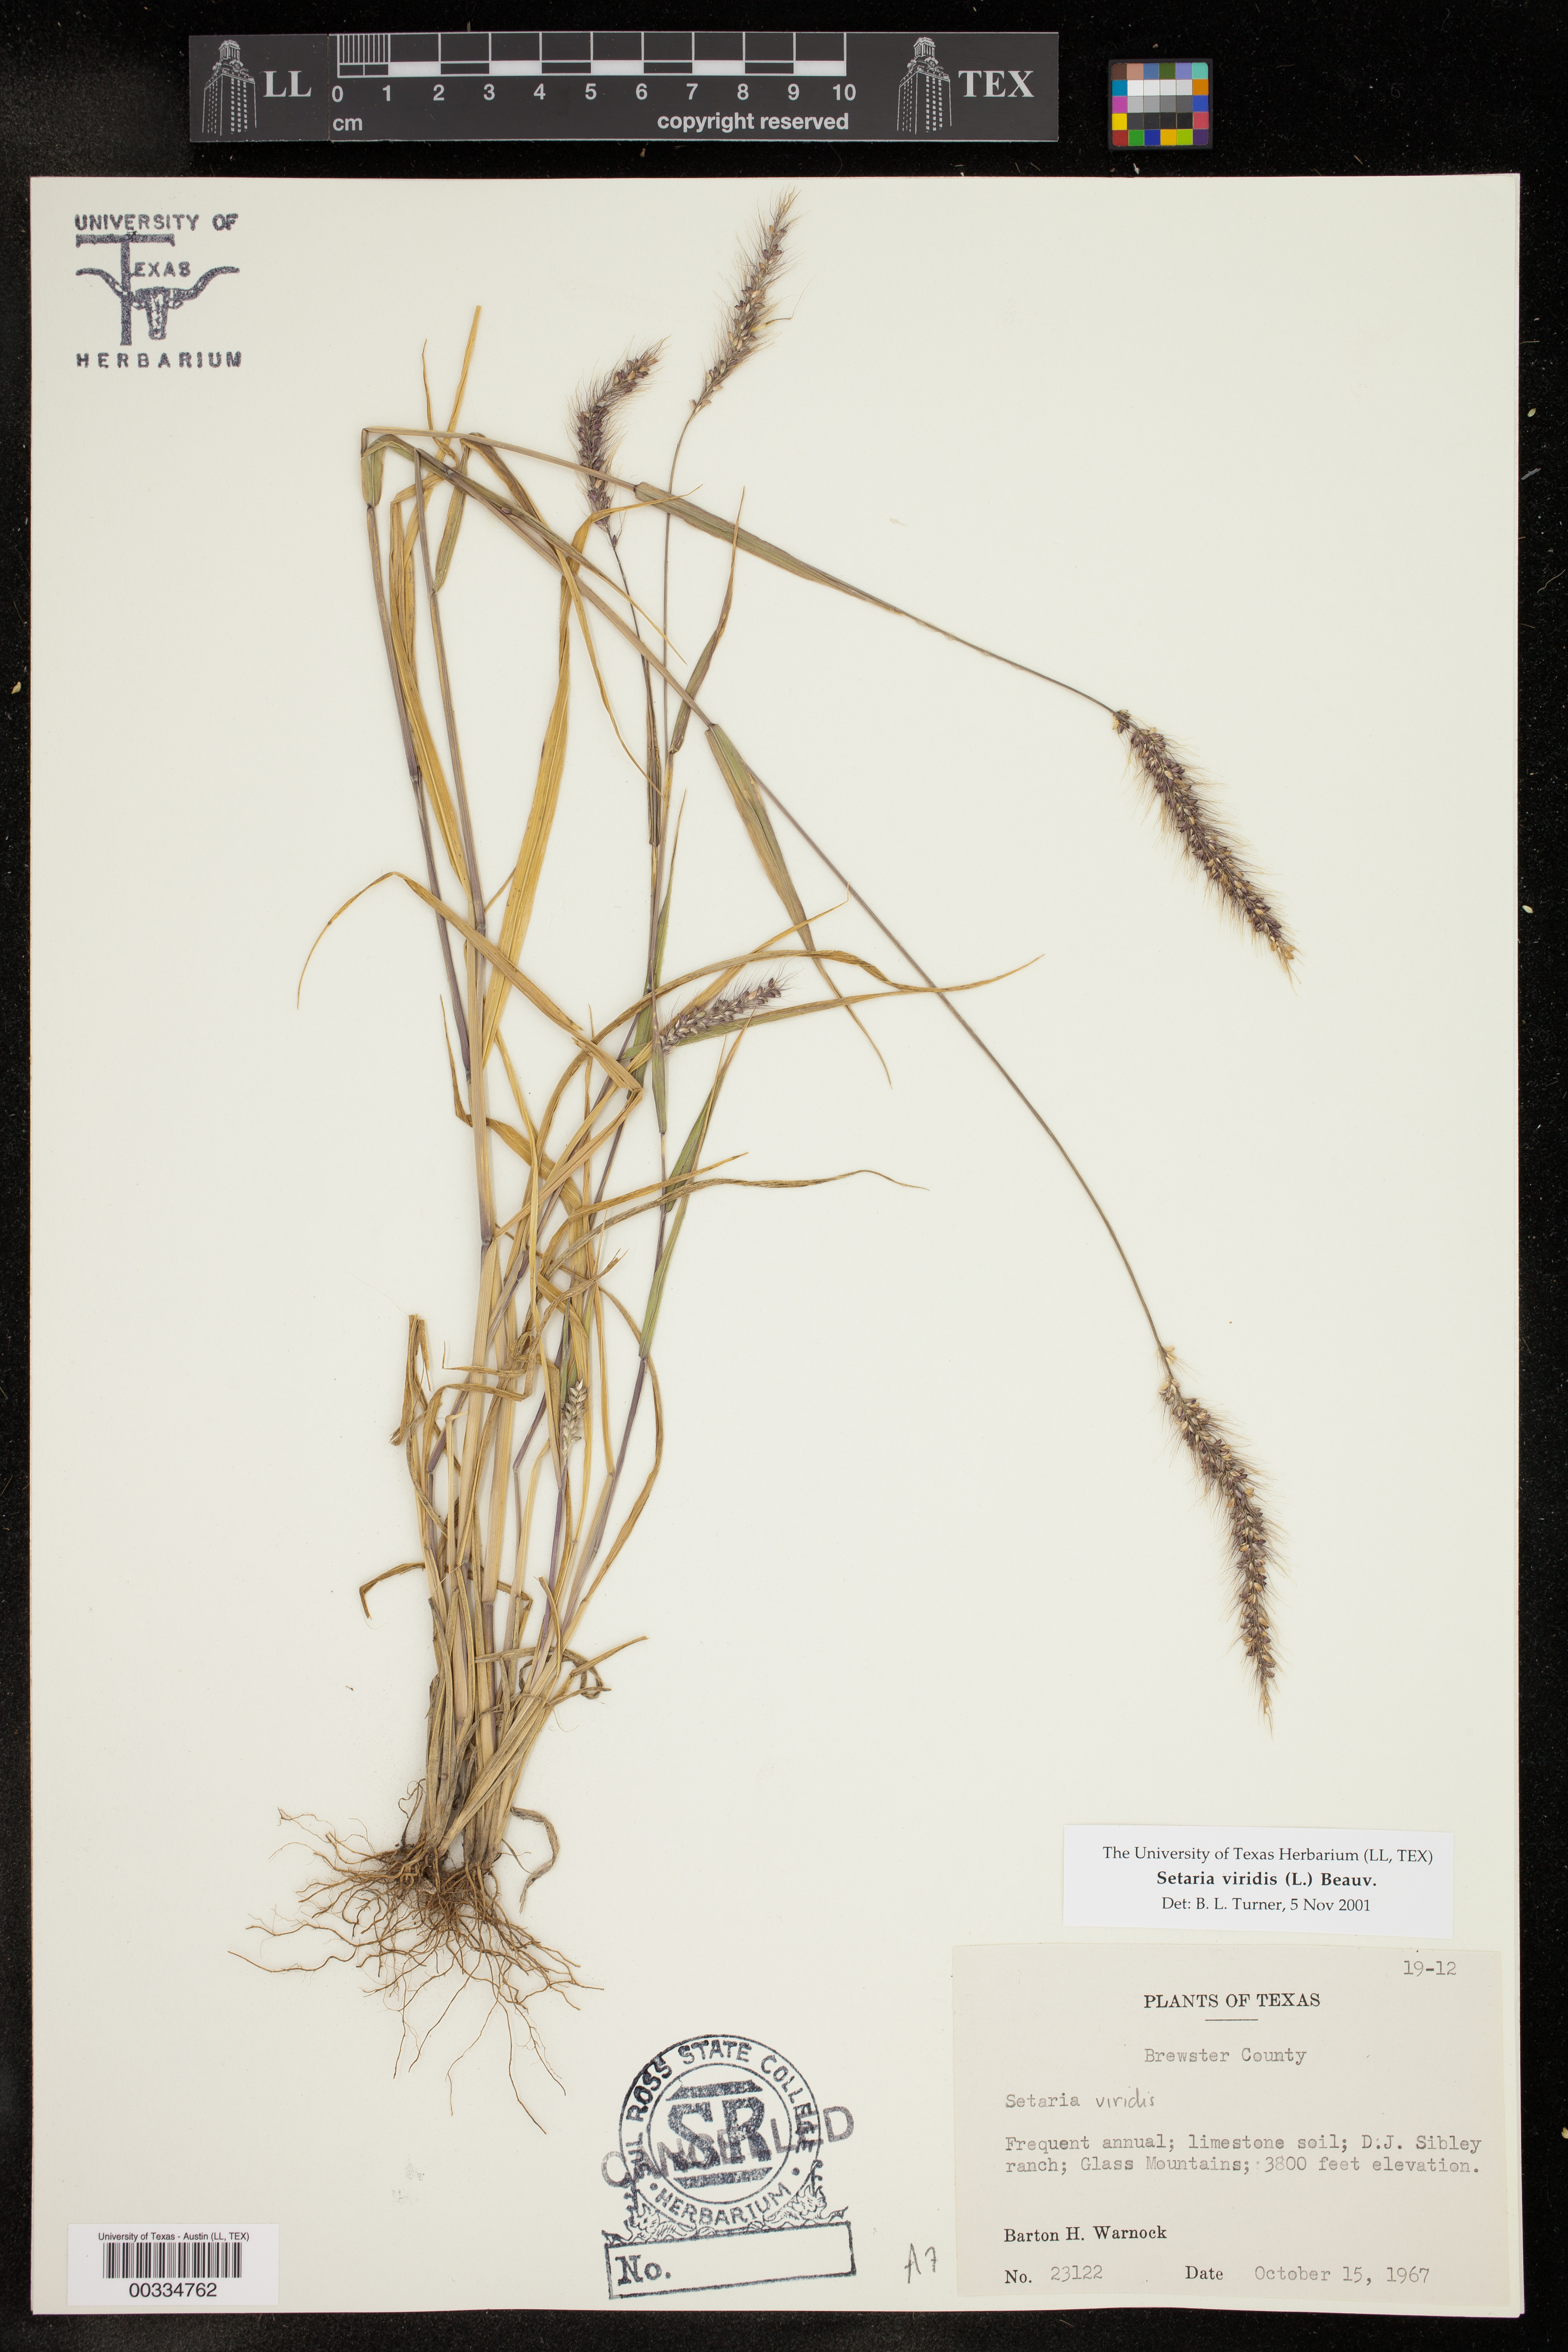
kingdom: Plantae
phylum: Tracheophyta
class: Liliopsida
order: Poales
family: Poaceae
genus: Setaria
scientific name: Setaria viridis
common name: Green bristlegrass
